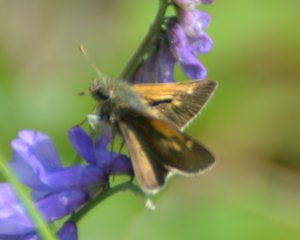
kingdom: Animalia
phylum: Arthropoda
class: Insecta
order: Lepidoptera
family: Hesperiidae
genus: Polites
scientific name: Polites themistocles
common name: Tawny-edged Skipper
